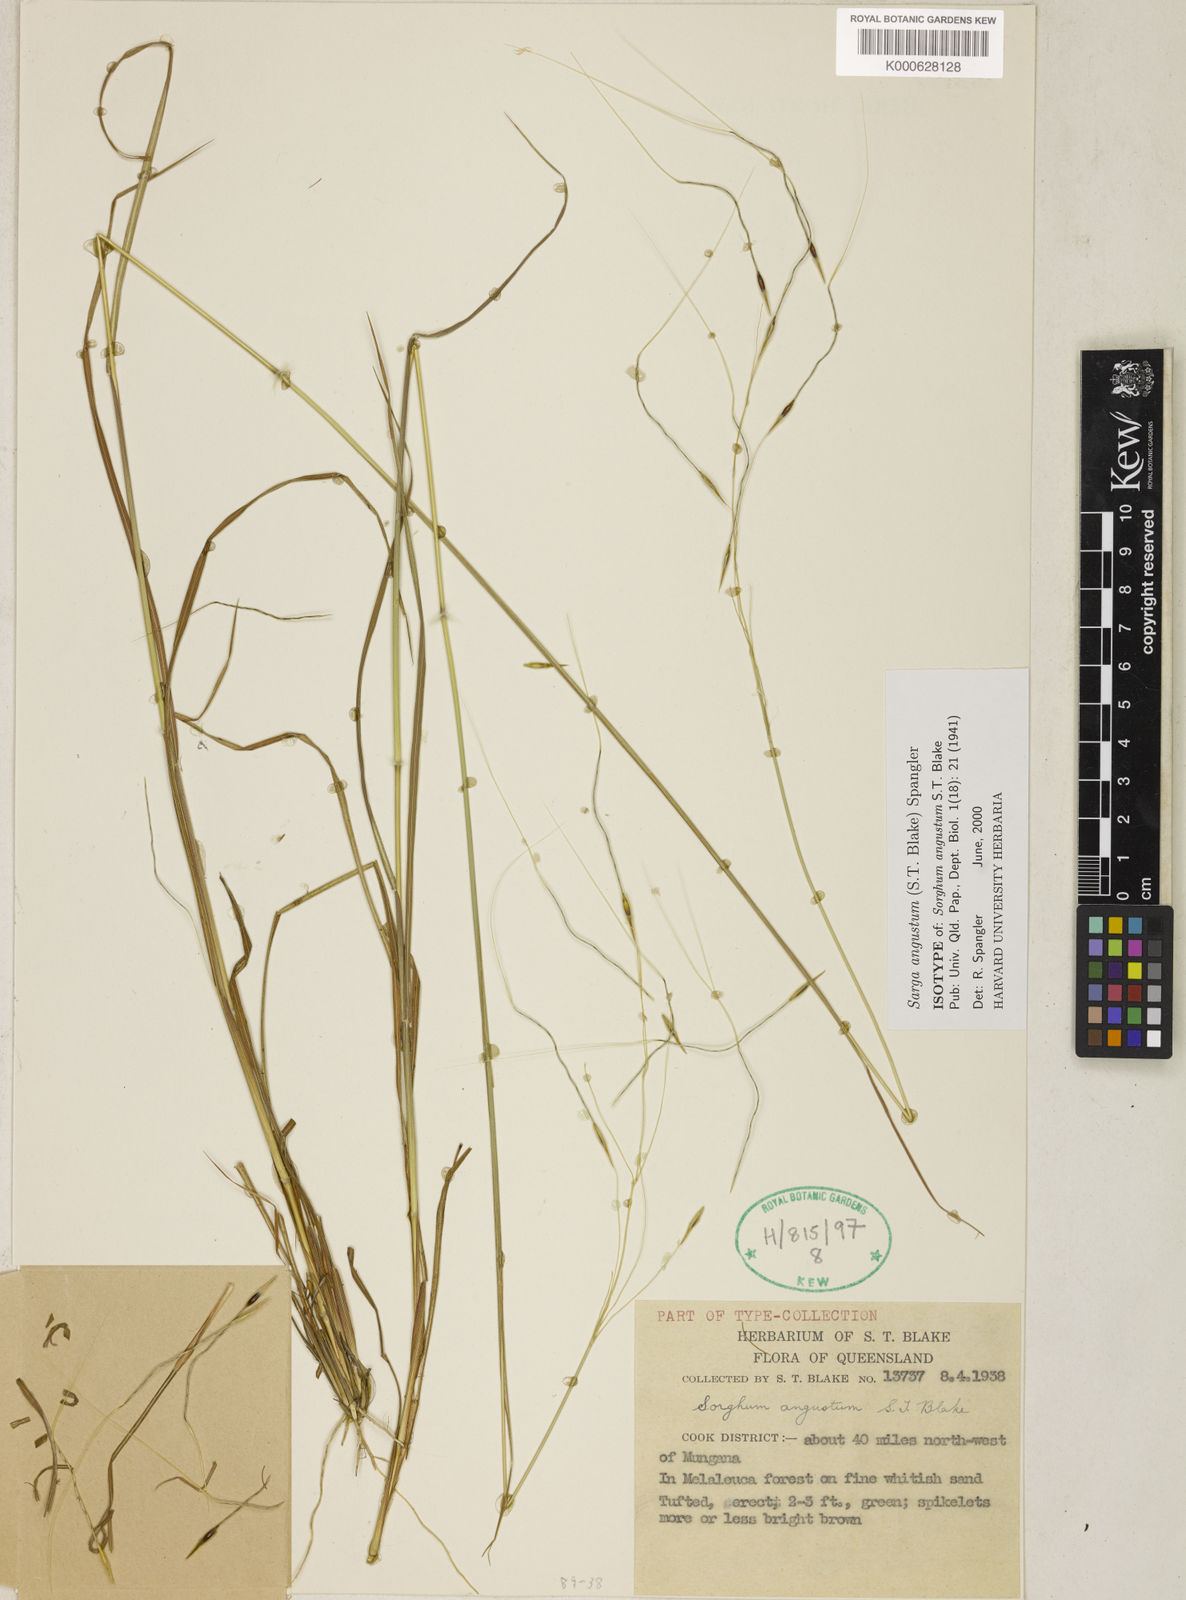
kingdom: Plantae
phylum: Tracheophyta
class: Liliopsida
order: Poales
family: Poaceae
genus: Sarga
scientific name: Sarga angusta
